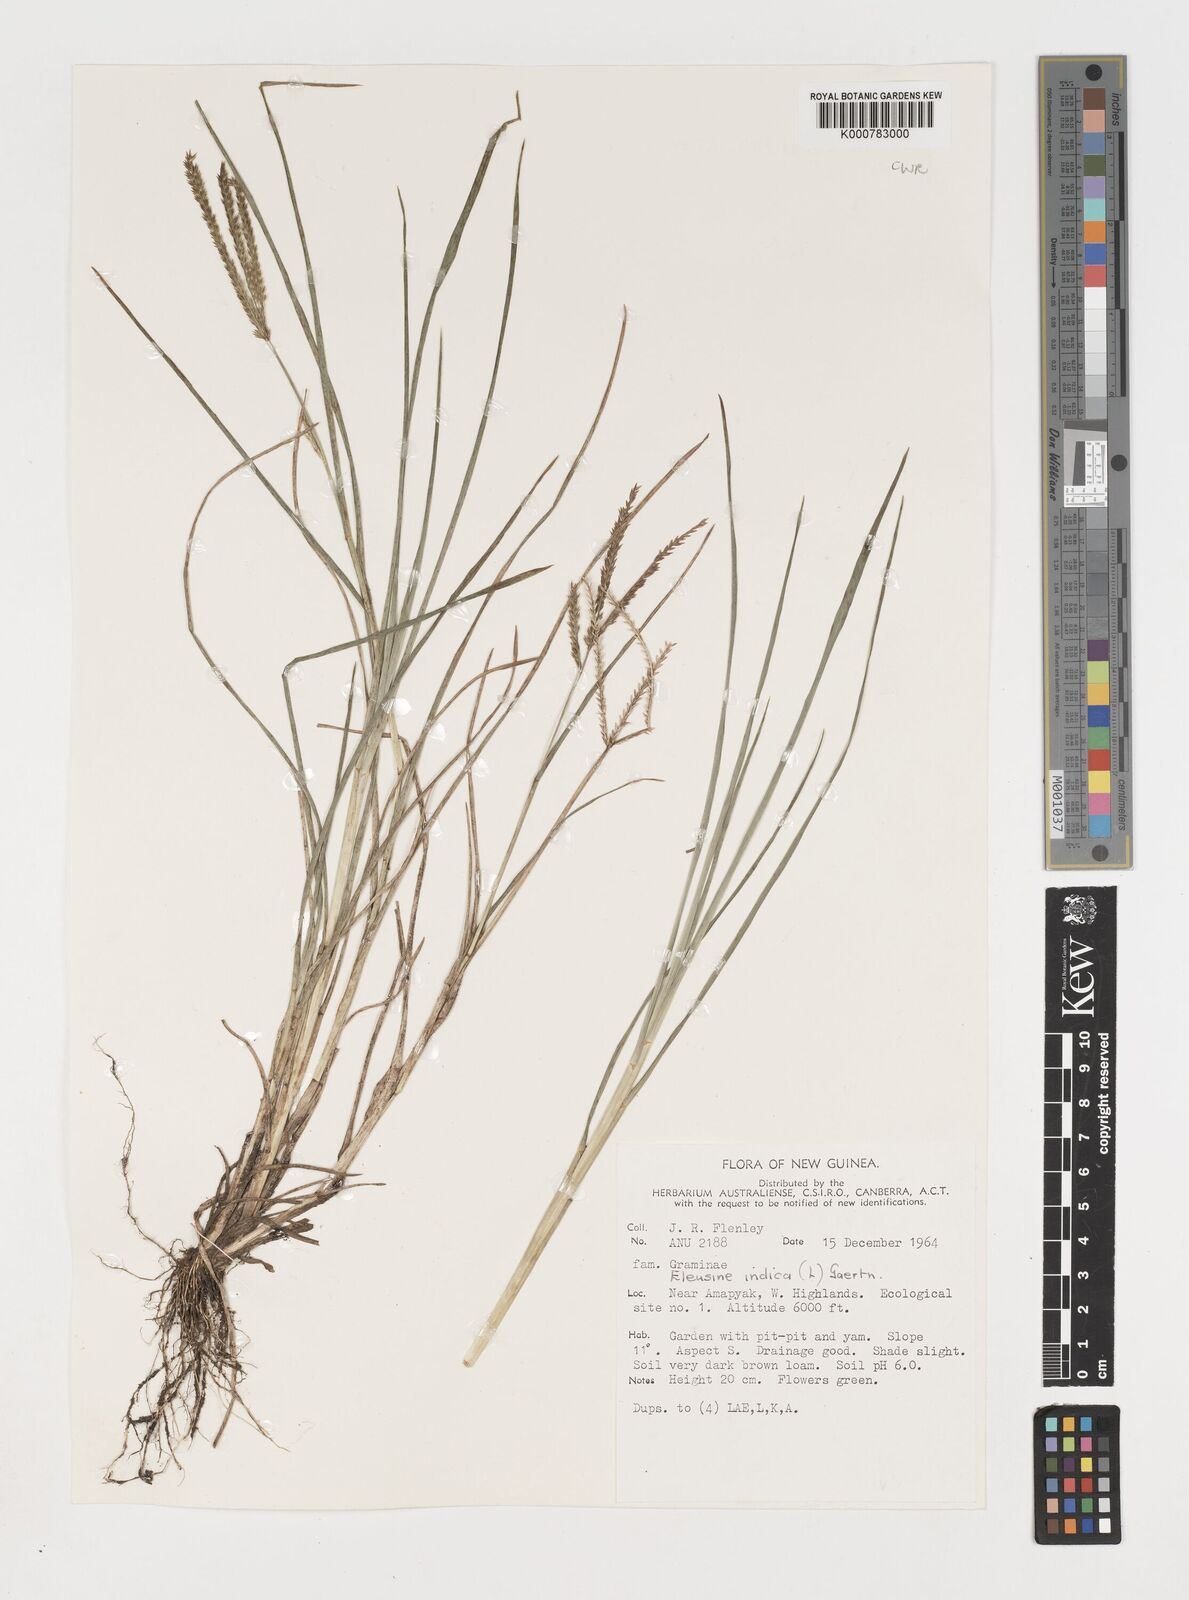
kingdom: Plantae
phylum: Tracheophyta
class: Liliopsida
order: Poales
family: Poaceae
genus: Eleusine
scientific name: Eleusine indica
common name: Yard-grass
